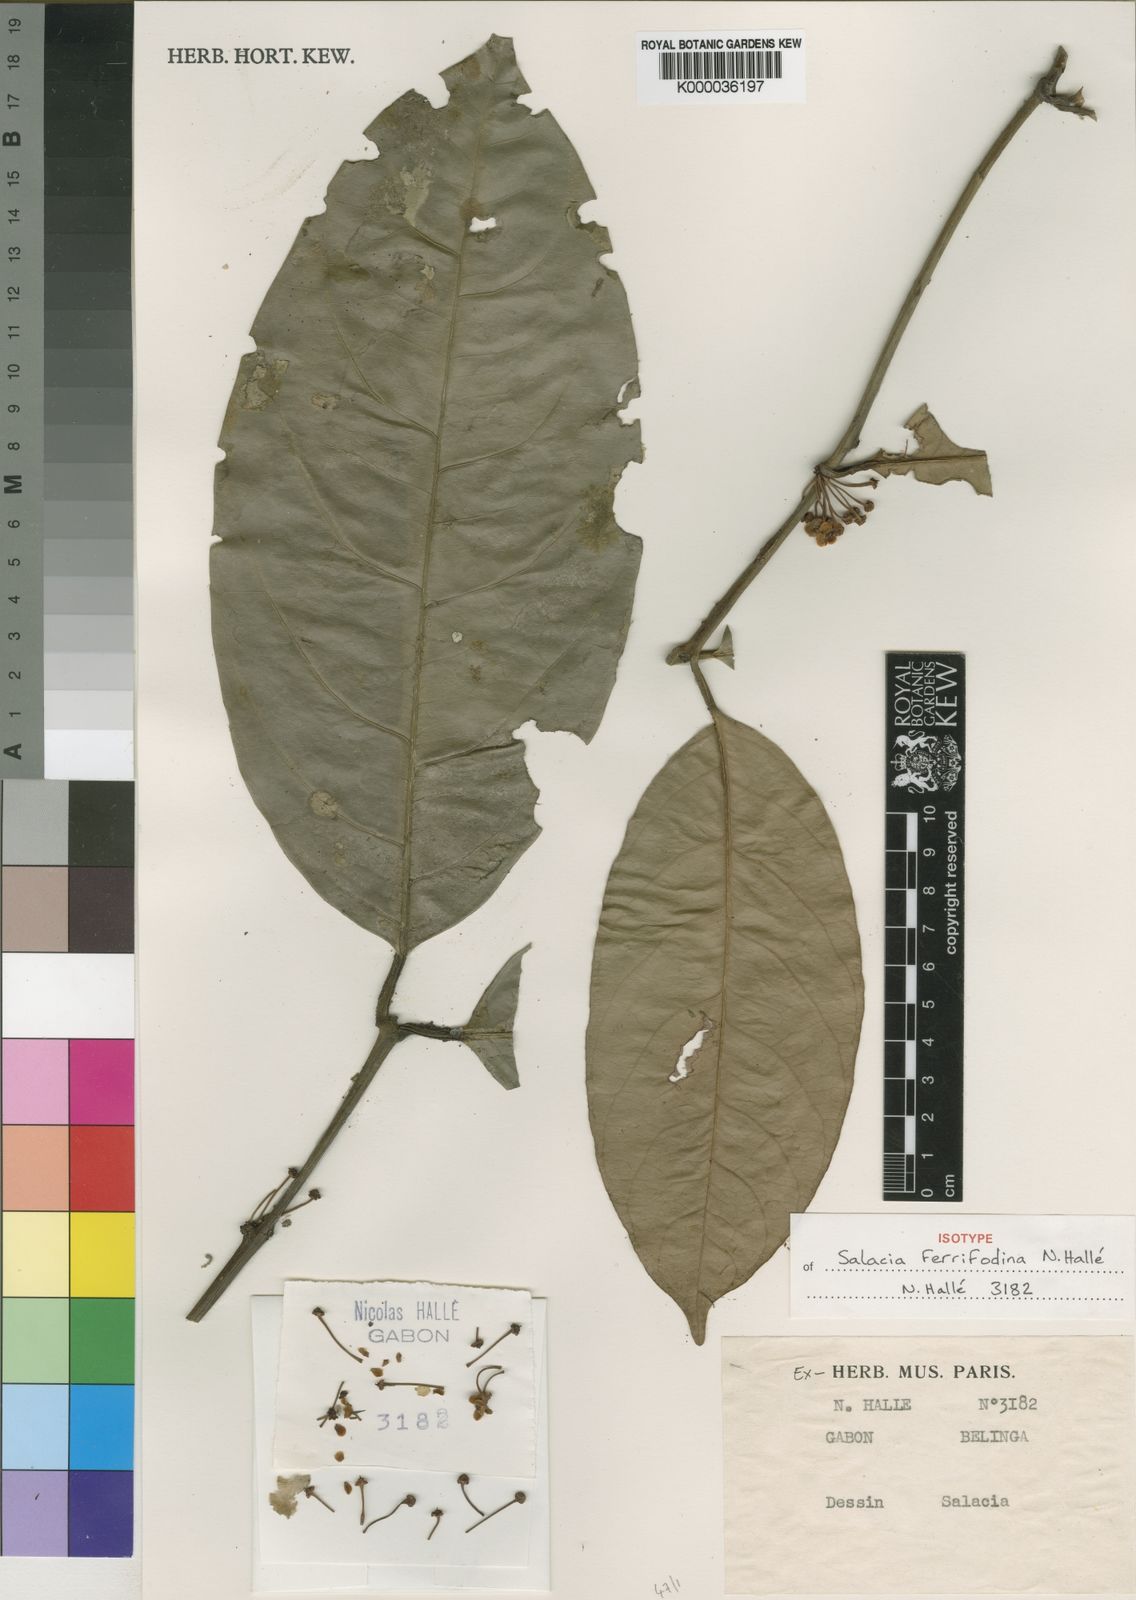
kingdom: Plantae
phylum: Tracheophyta
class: Magnoliopsida
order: Celastrales
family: Celastraceae
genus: Salacia
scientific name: Salacia
